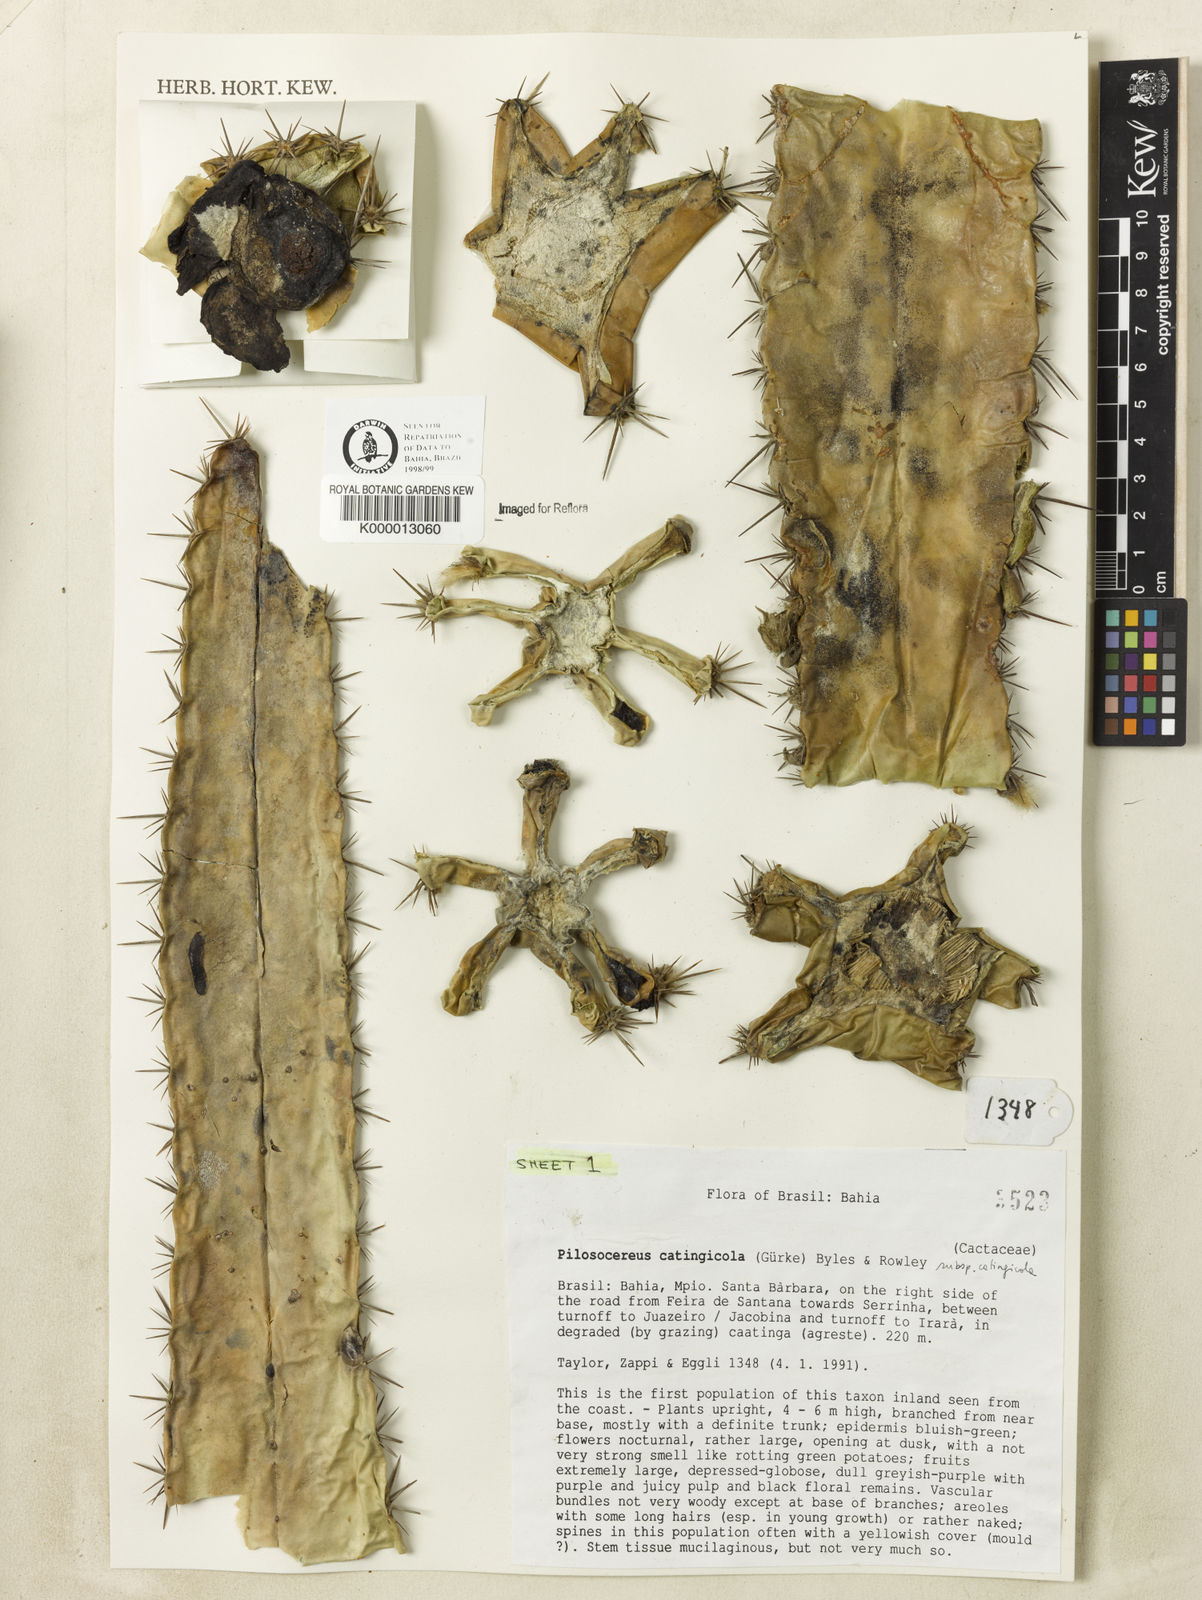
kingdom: Plantae
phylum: Tracheophyta
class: Magnoliopsida
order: Caryophyllales
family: Cactaceae
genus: Pilosocereus
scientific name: Pilosocereus catingicola
